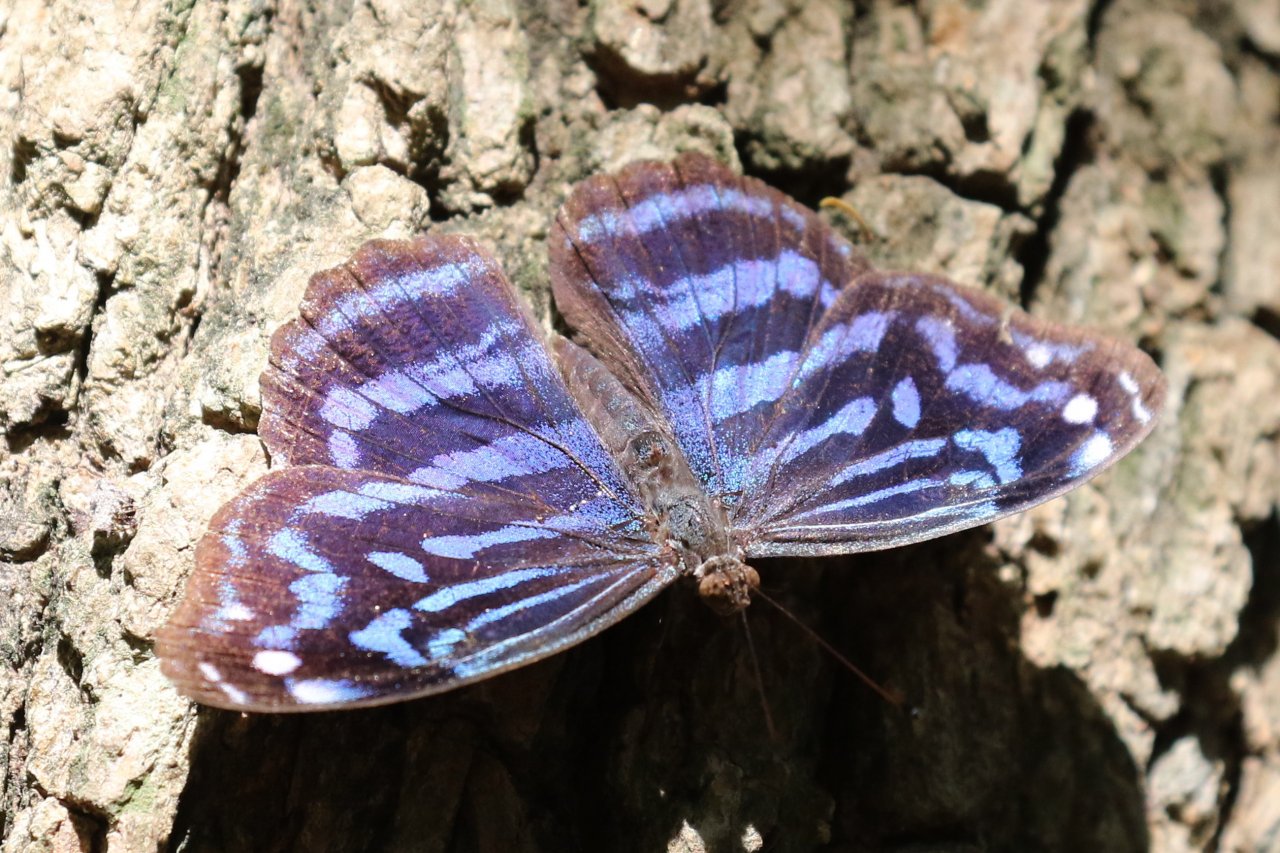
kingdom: Animalia
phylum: Arthropoda
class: Insecta
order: Lepidoptera
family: Nymphalidae
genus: Myscelia
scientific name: Myscelia ethusa
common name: Mexican Bluewing
